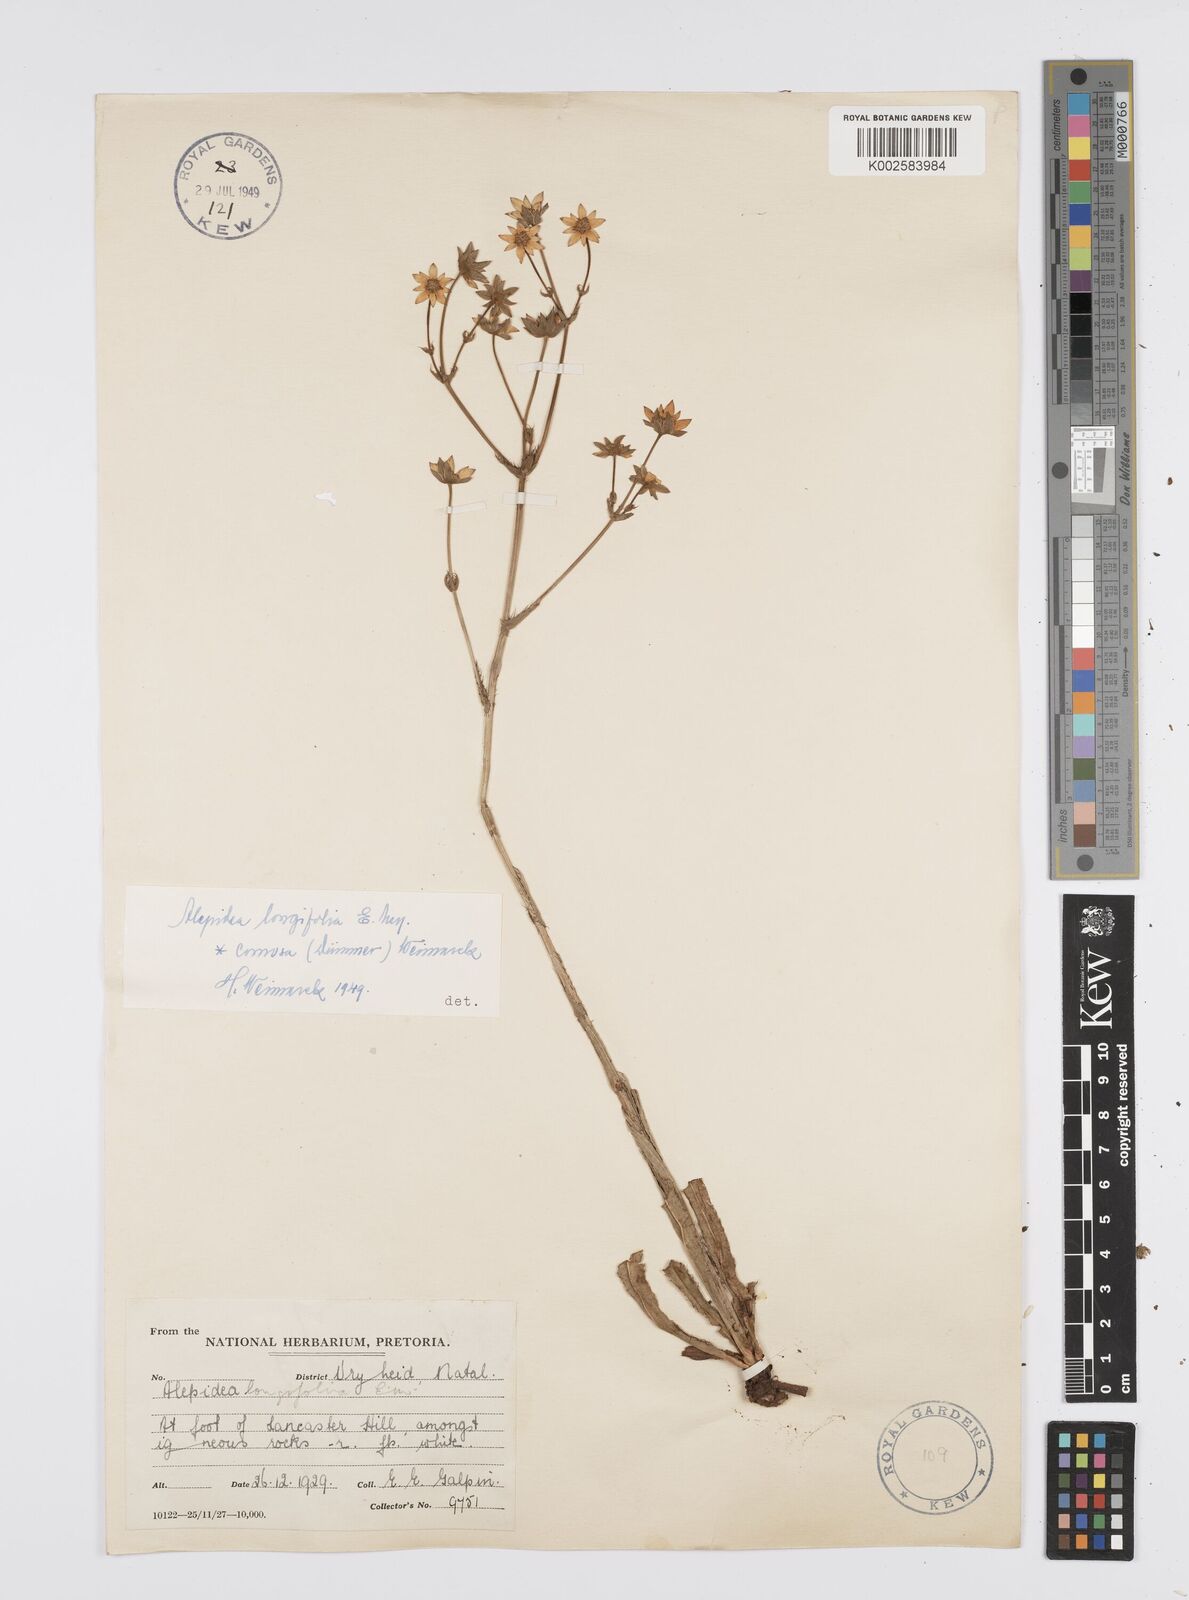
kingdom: Plantae
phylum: Tracheophyta
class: Magnoliopsida
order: Apiales
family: Apiaceae
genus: Alepidea
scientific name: Alepidea
